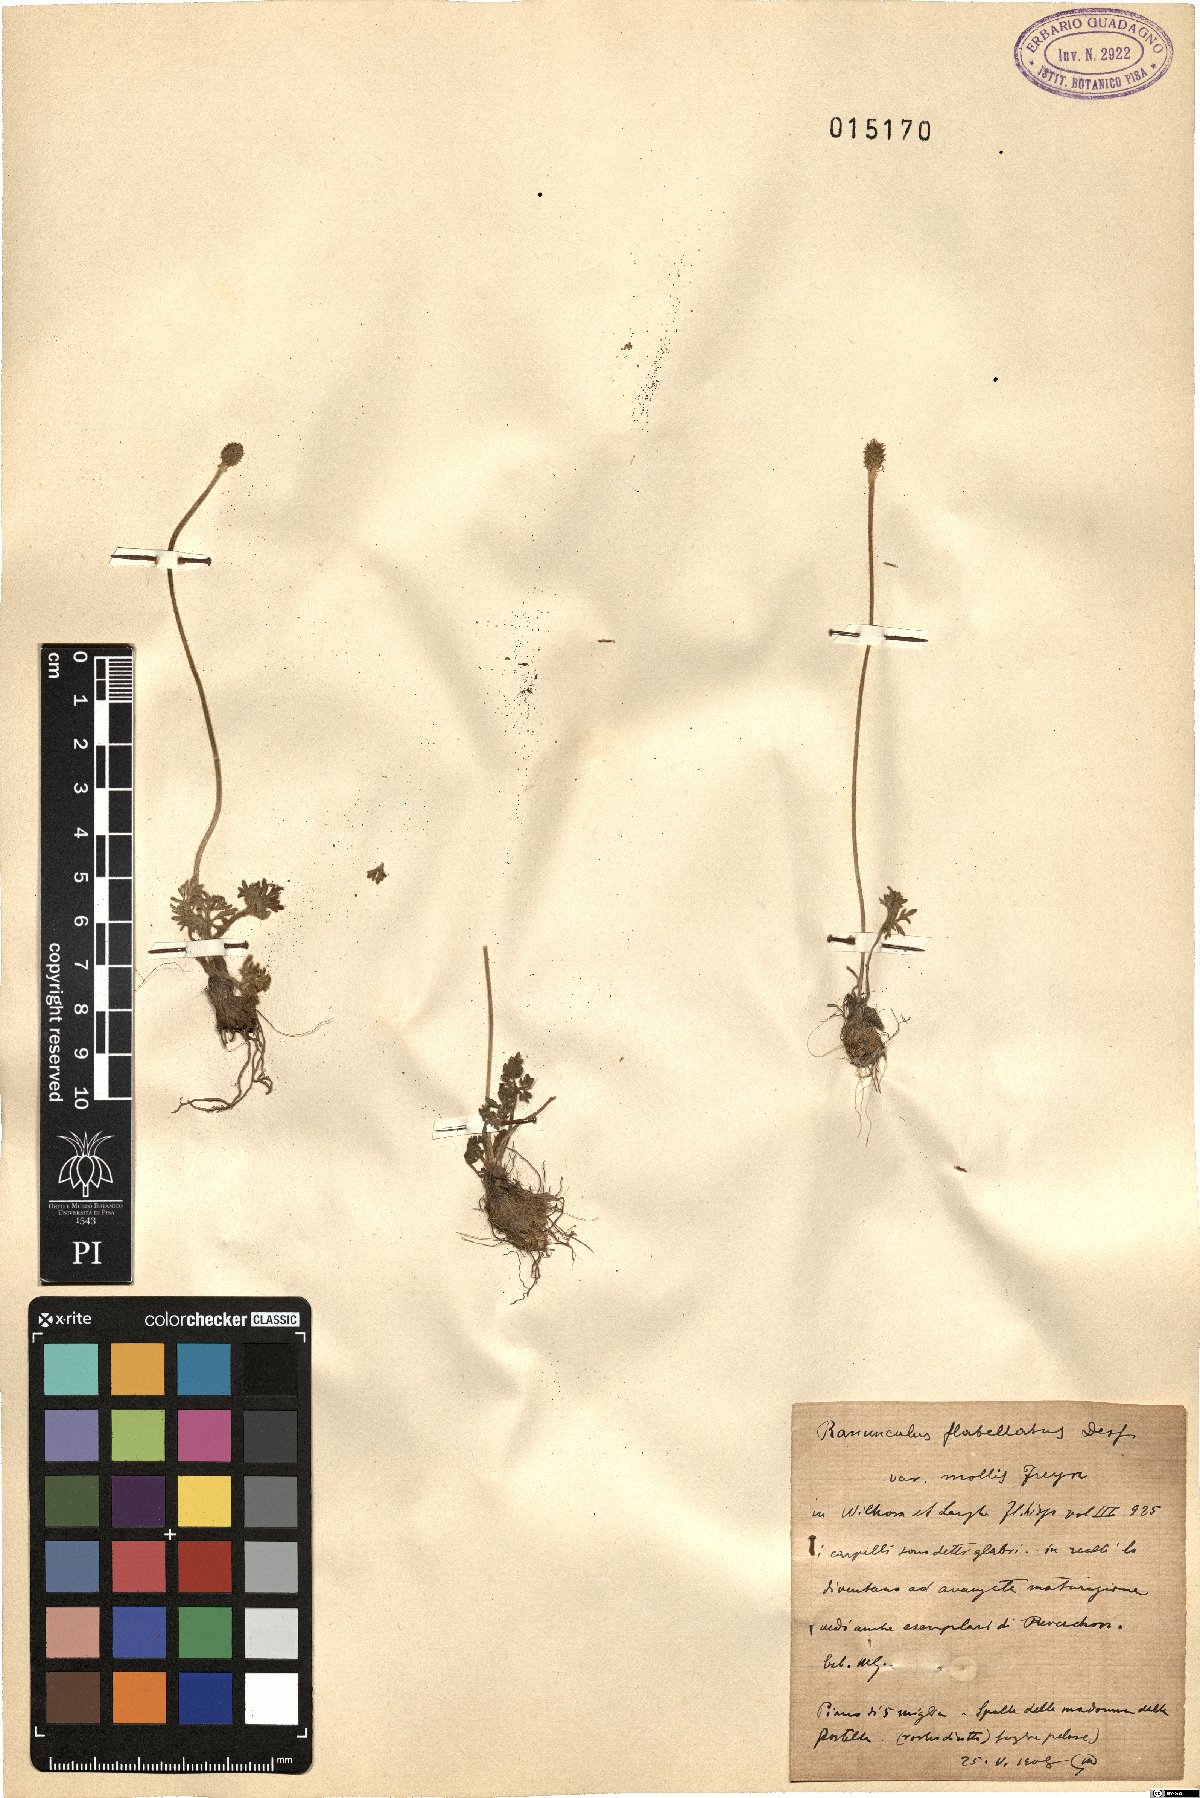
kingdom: Plantae
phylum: Tracheophyta
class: Magnoliopsida
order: Ranunculales
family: Ranunculaceae
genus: Ranunculus
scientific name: Ranunculus flabellatus
